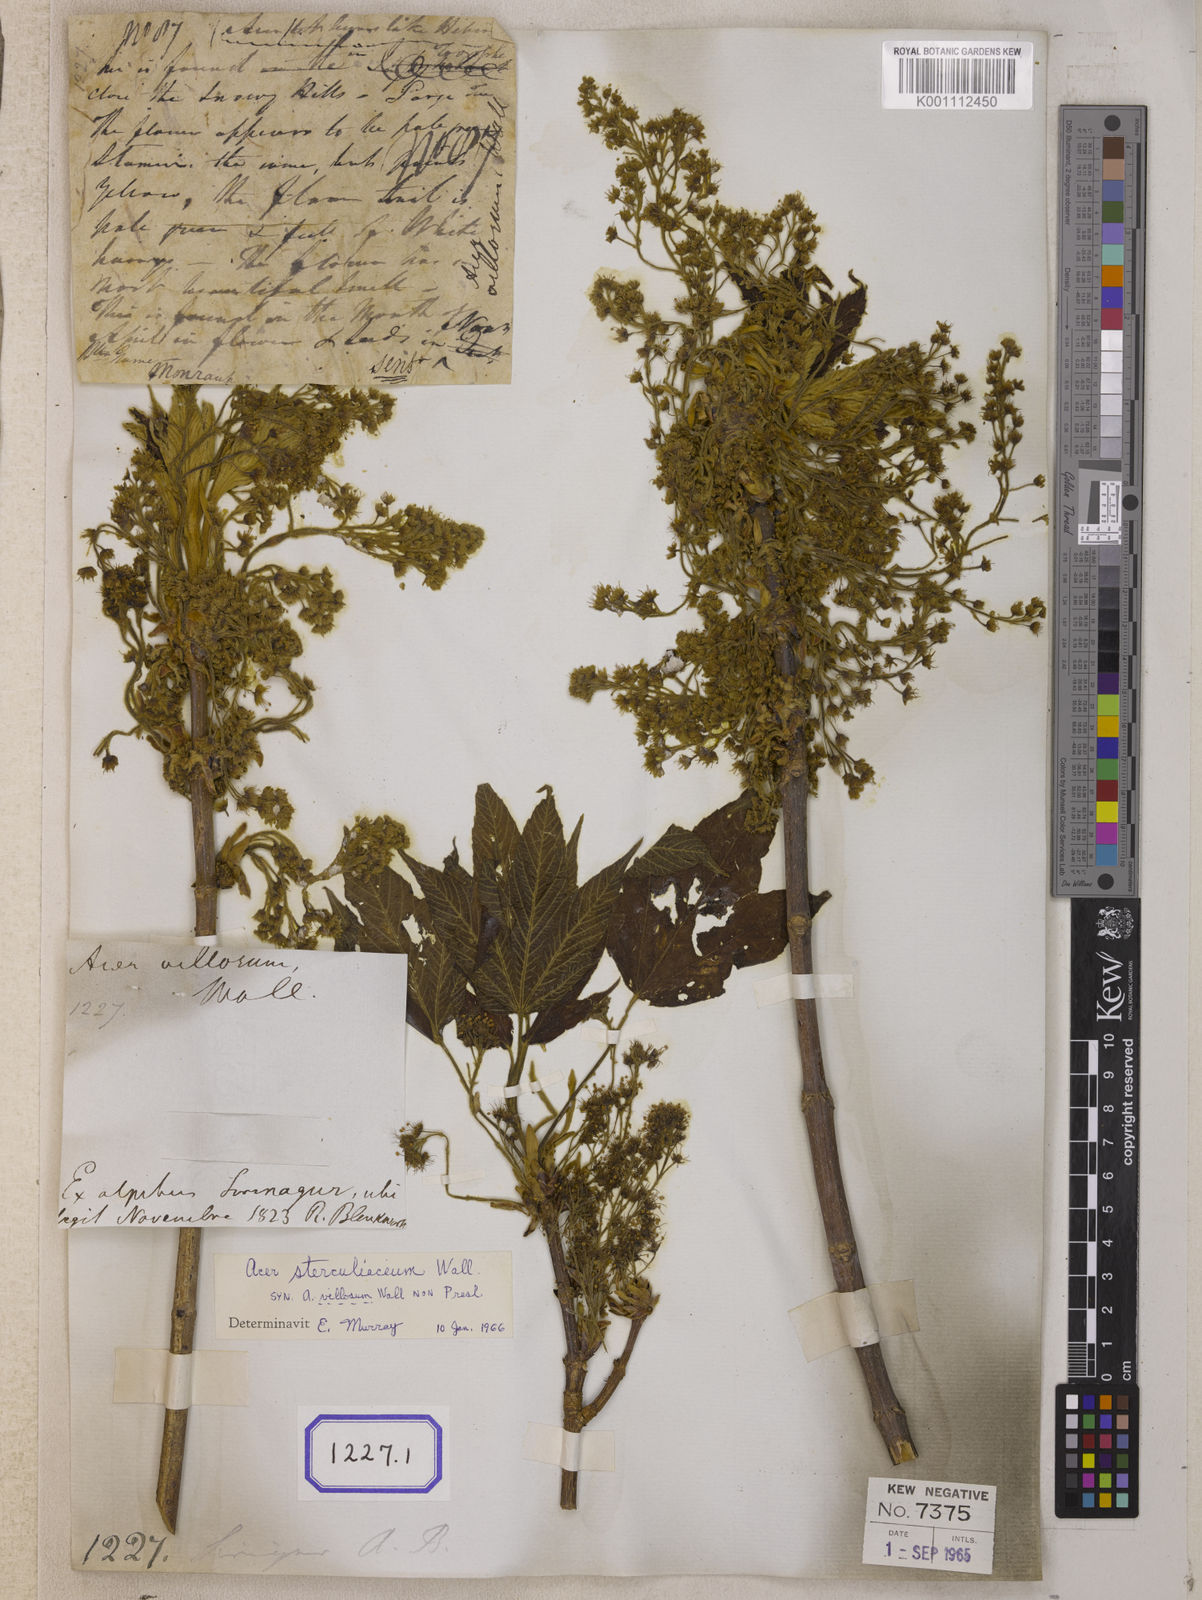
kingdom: Plantae
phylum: Tracheophyta
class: Magnoliopsida
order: Sapindales
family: Sapindaceae
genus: Acer
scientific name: Acer sterculiaceum
